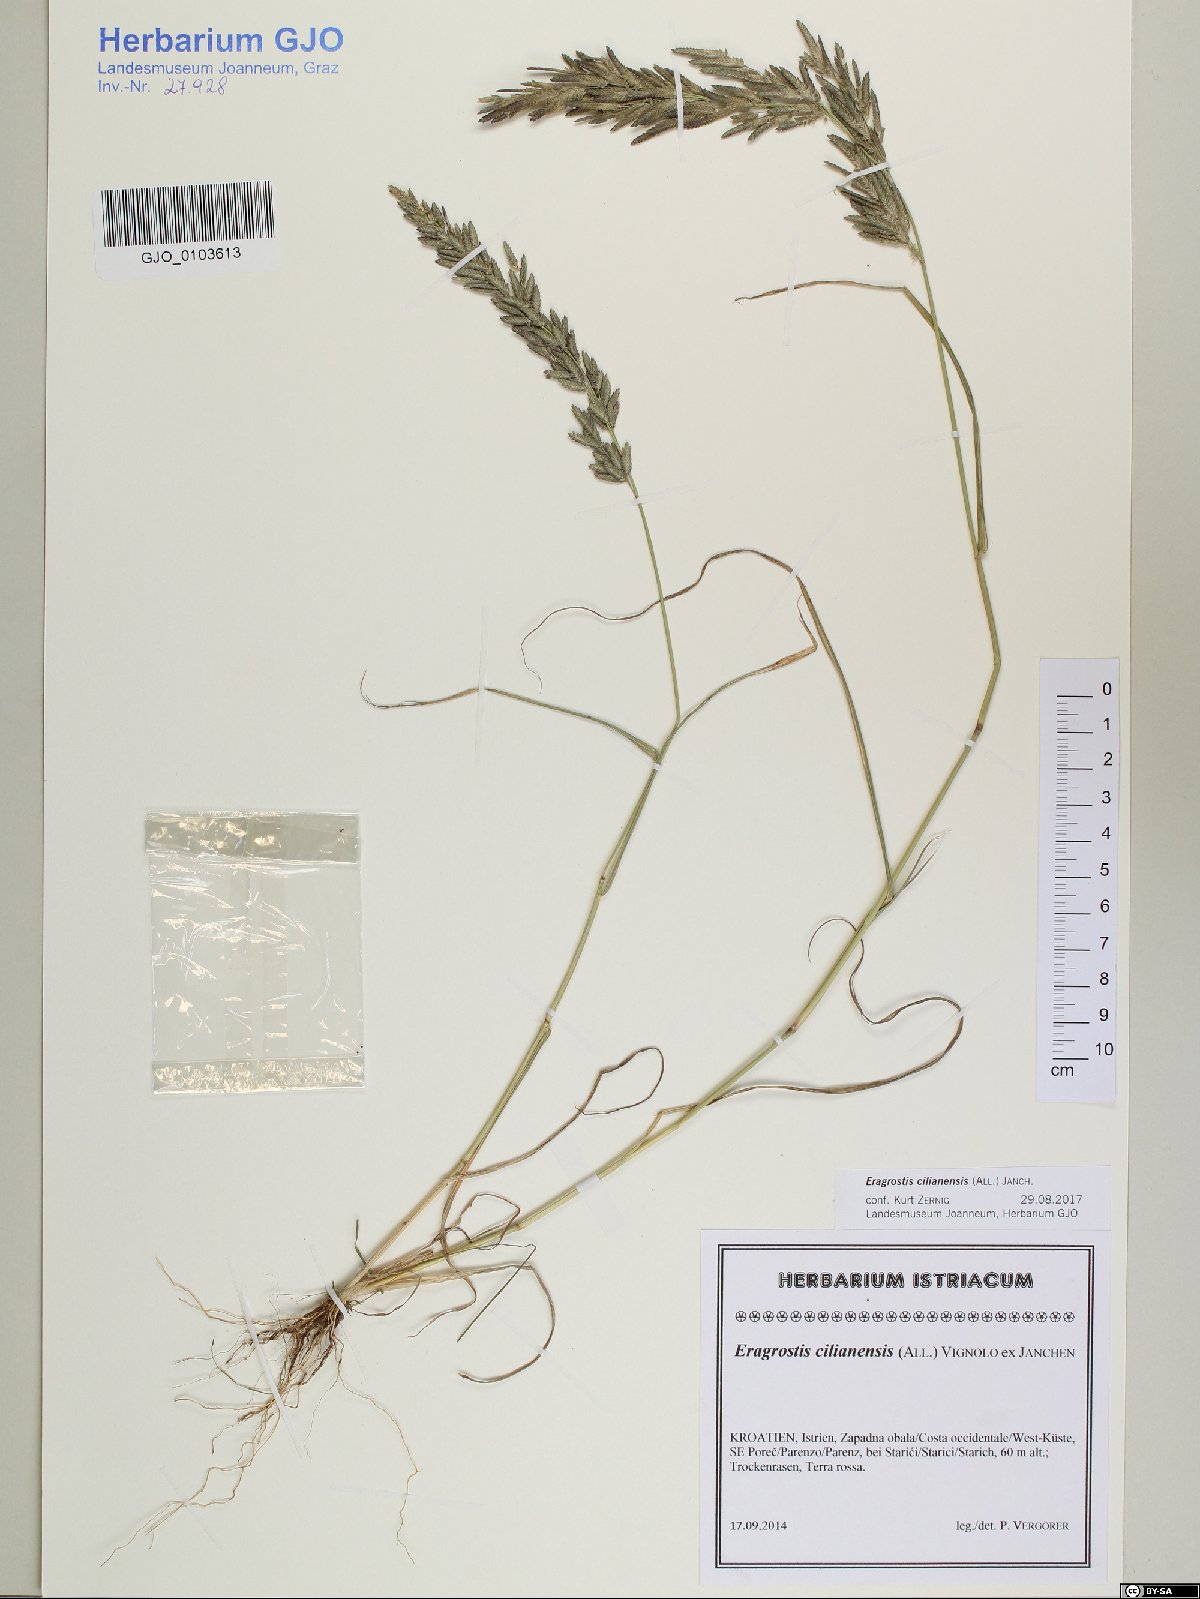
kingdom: Plantae
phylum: Tracheophyta
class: Liliopsida
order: Poales
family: Poaceae
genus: Eragrostis
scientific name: Eragrostis cilianensis
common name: Stinkgrass
